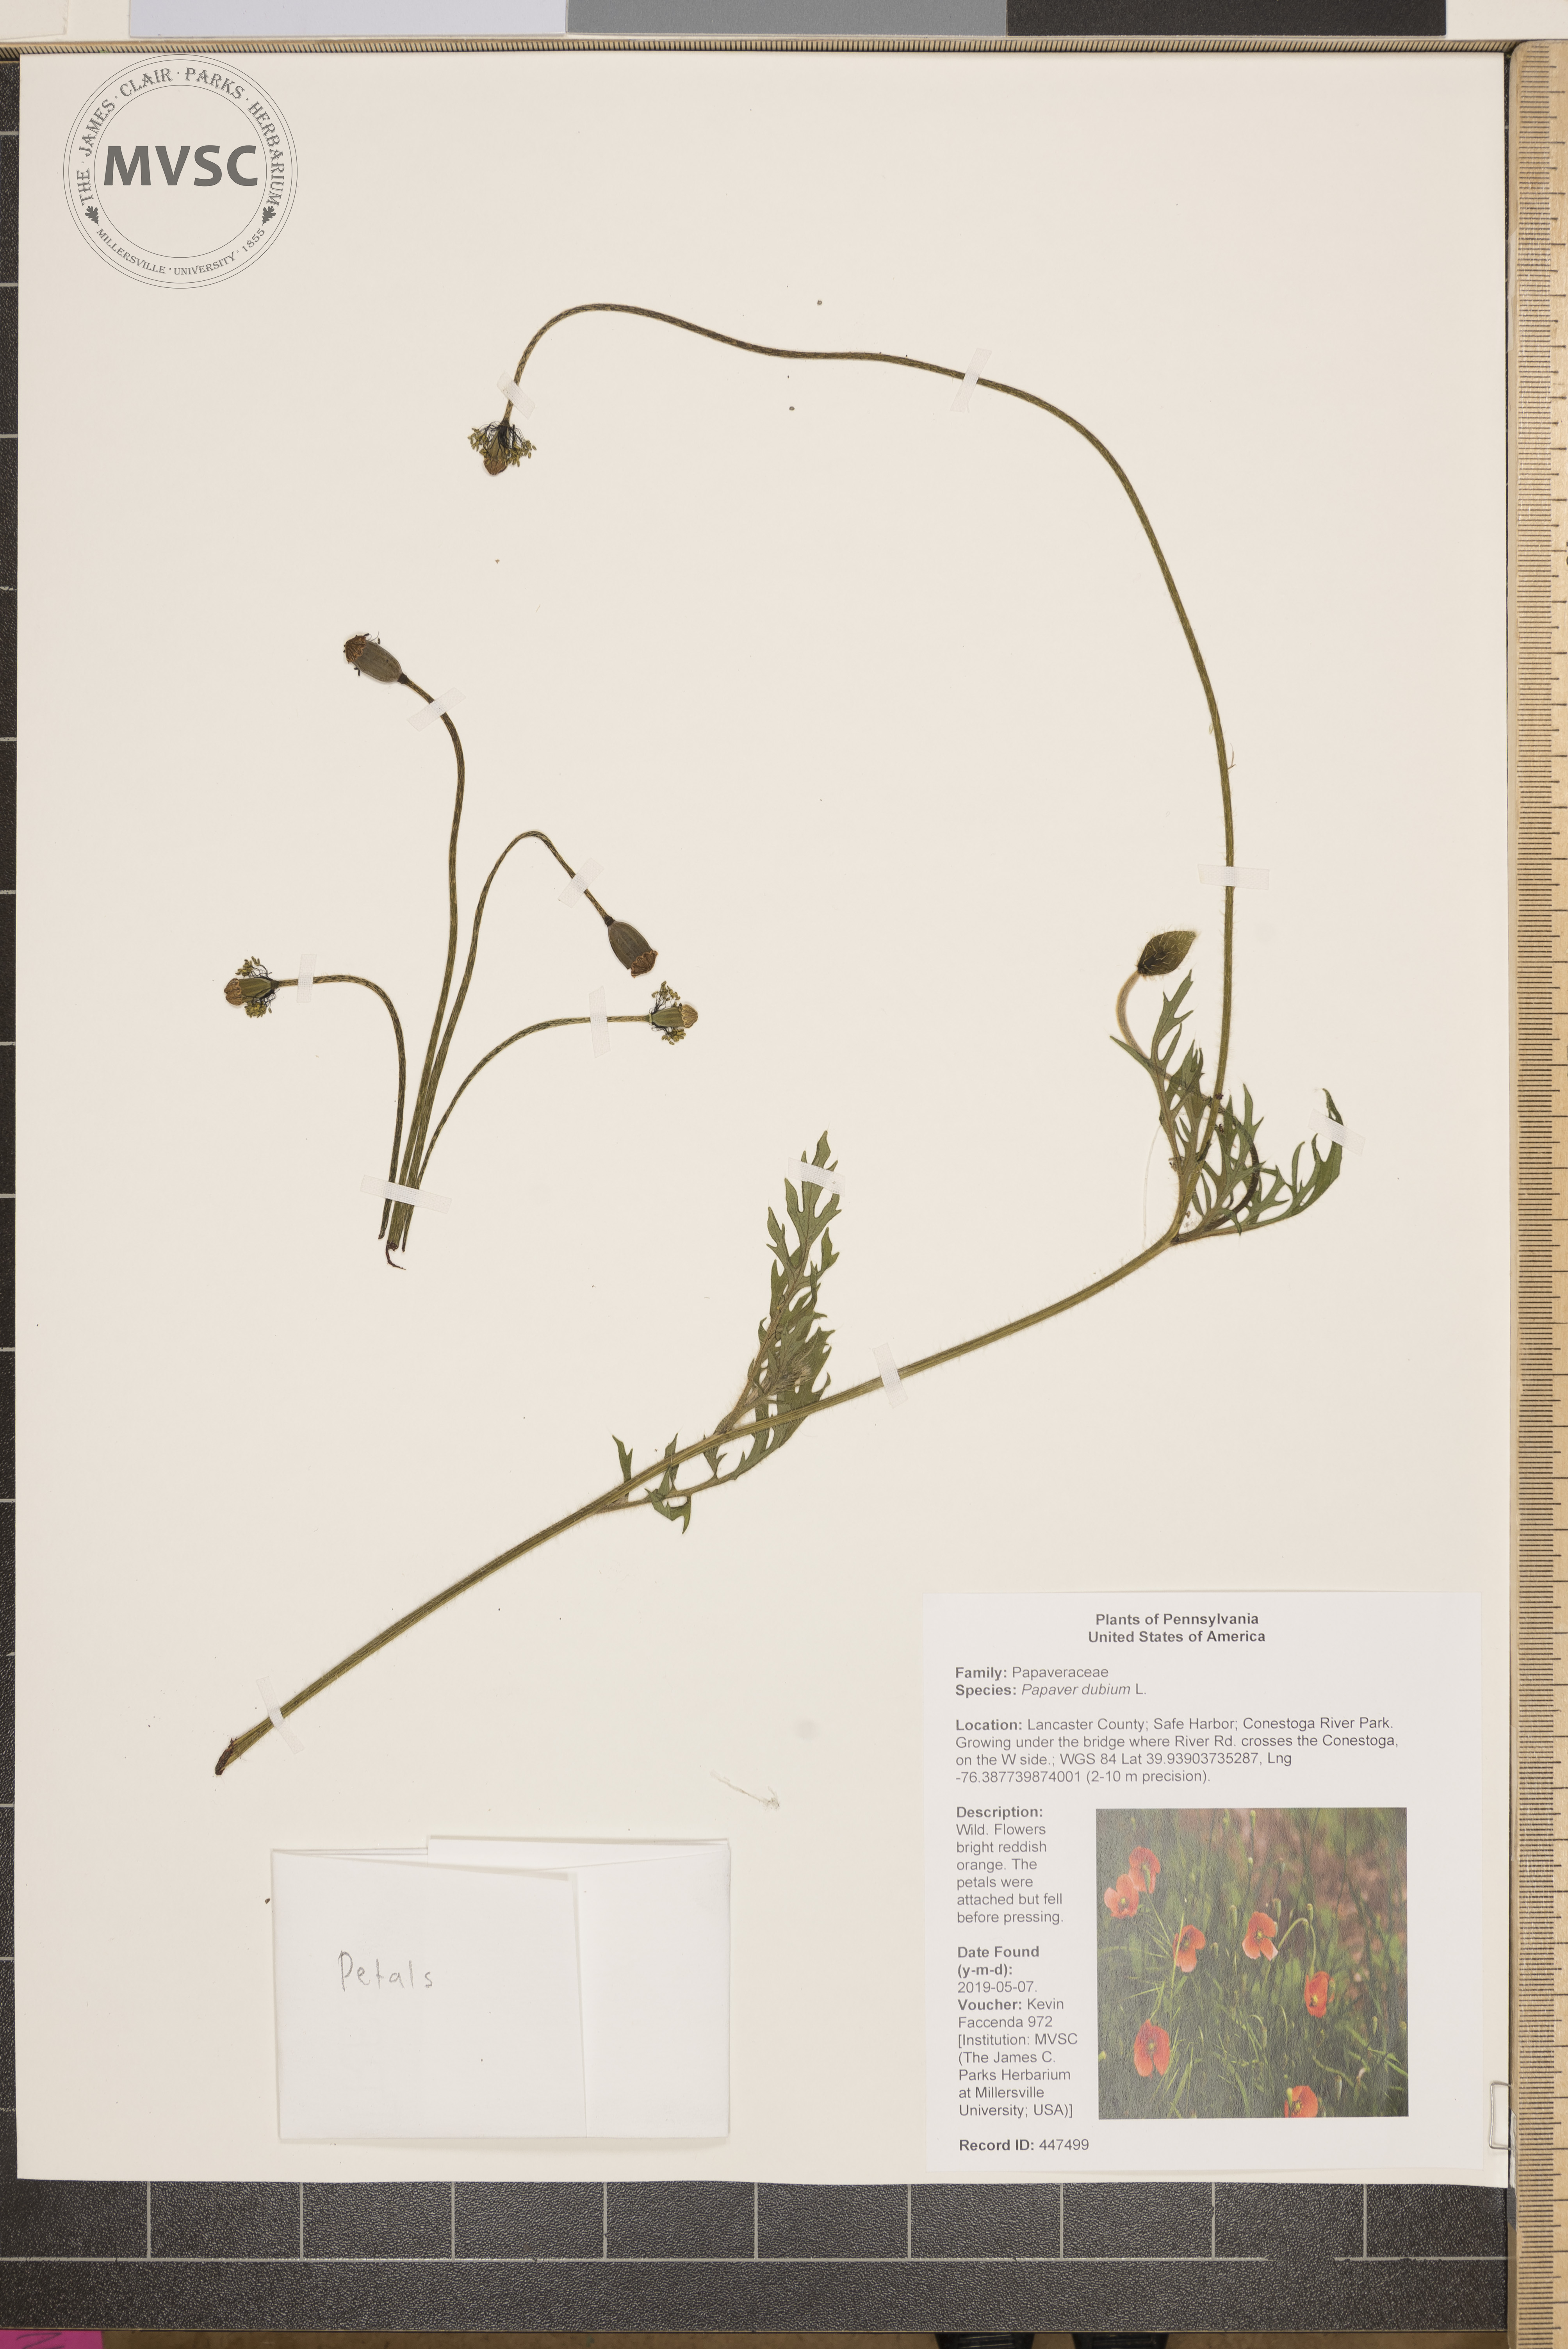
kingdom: Plantae
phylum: Tracheophyta
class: Magnoliopsida
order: Ranunculales
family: Papaveraceae
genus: Papaver
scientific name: Papaver dubium
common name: Long-headed poppy
